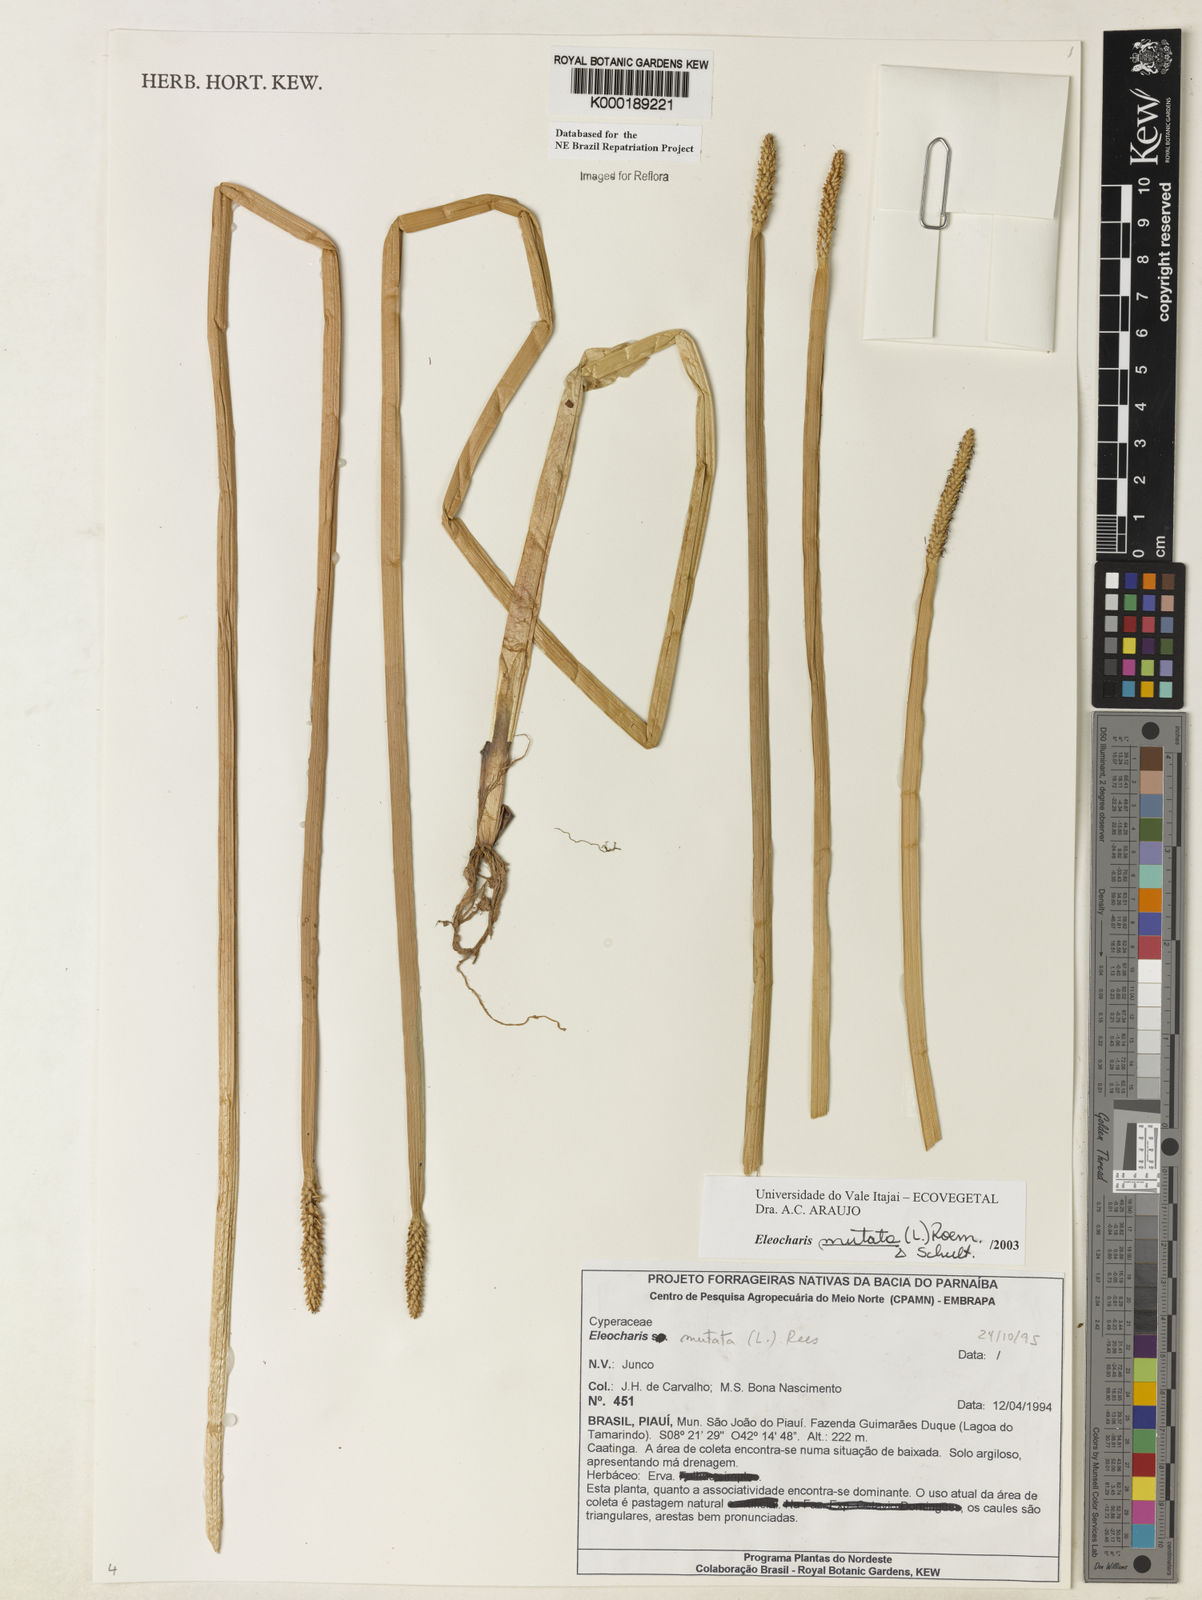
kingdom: Plantae
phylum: Tracheophyta
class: Liliopsida
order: Poales
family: Cyperaceae
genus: Eleocharis
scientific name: Eleocharis mutata
